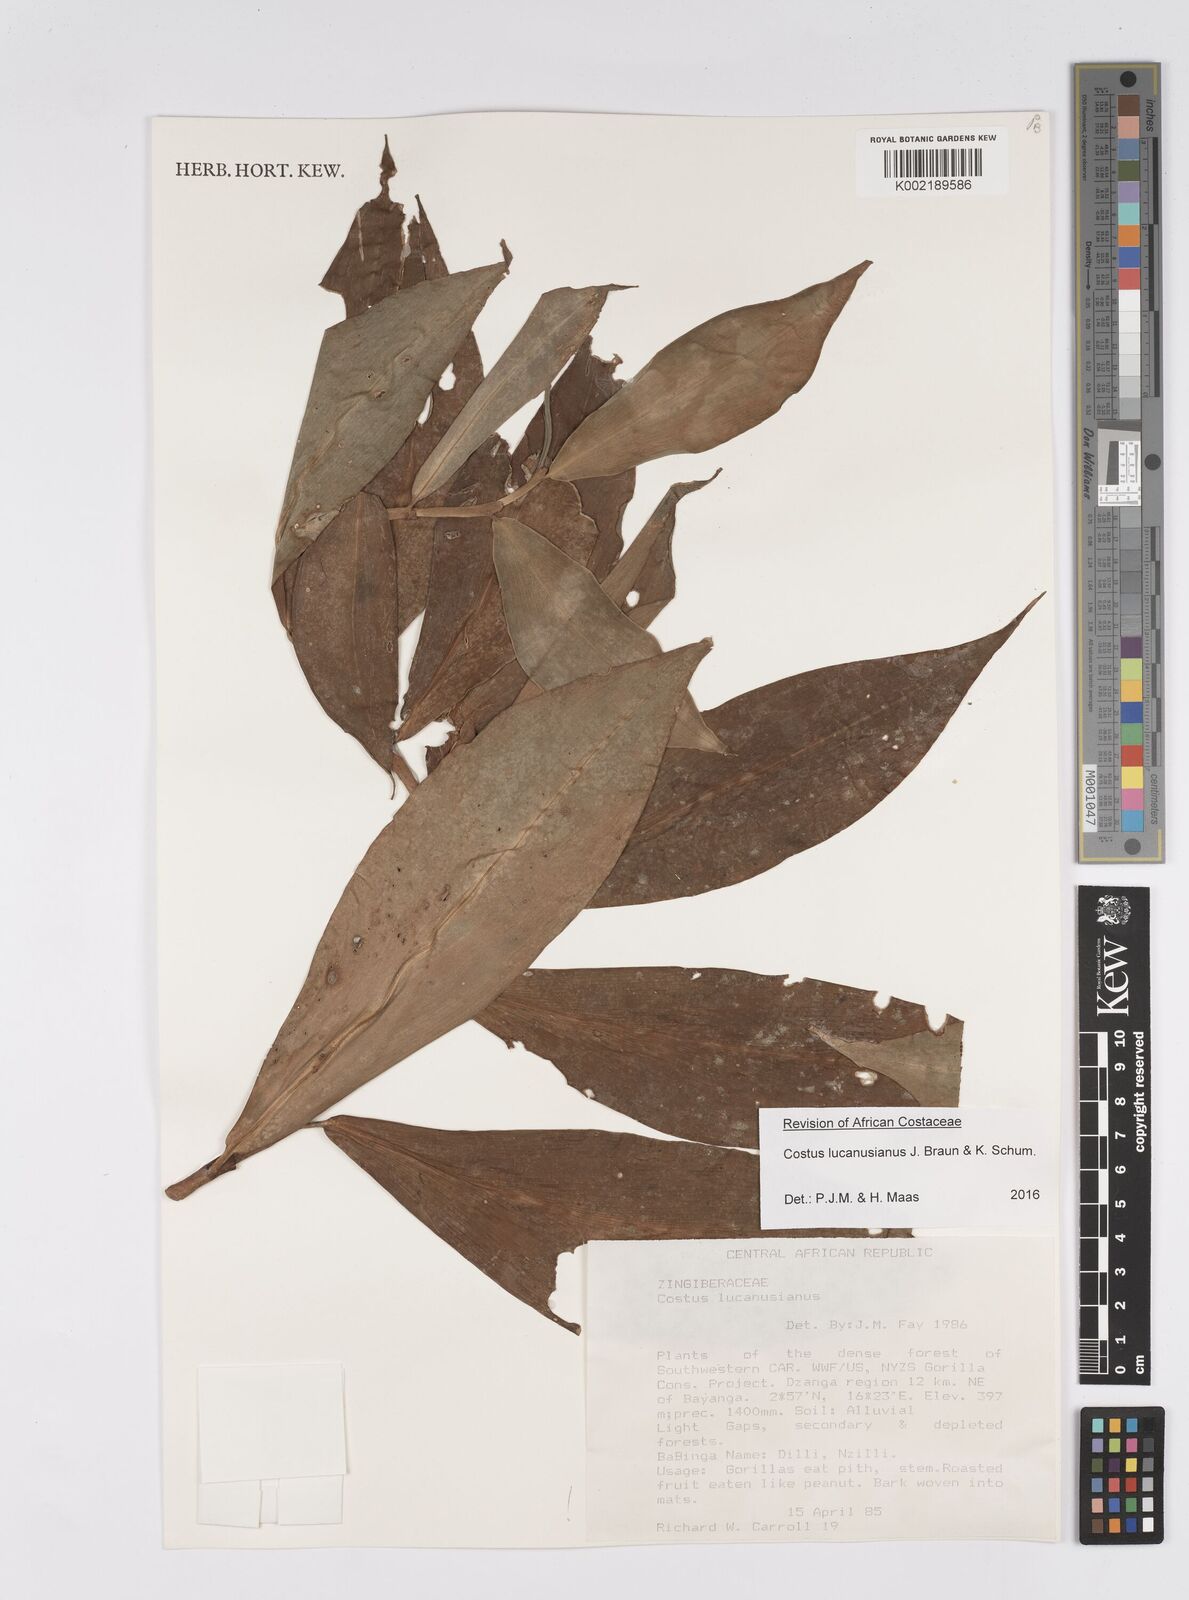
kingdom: Plantae
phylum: Tracheophyta
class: Liliopsida
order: Zingiberales
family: Costaceae
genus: Costus
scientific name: Costus lucanusianus
